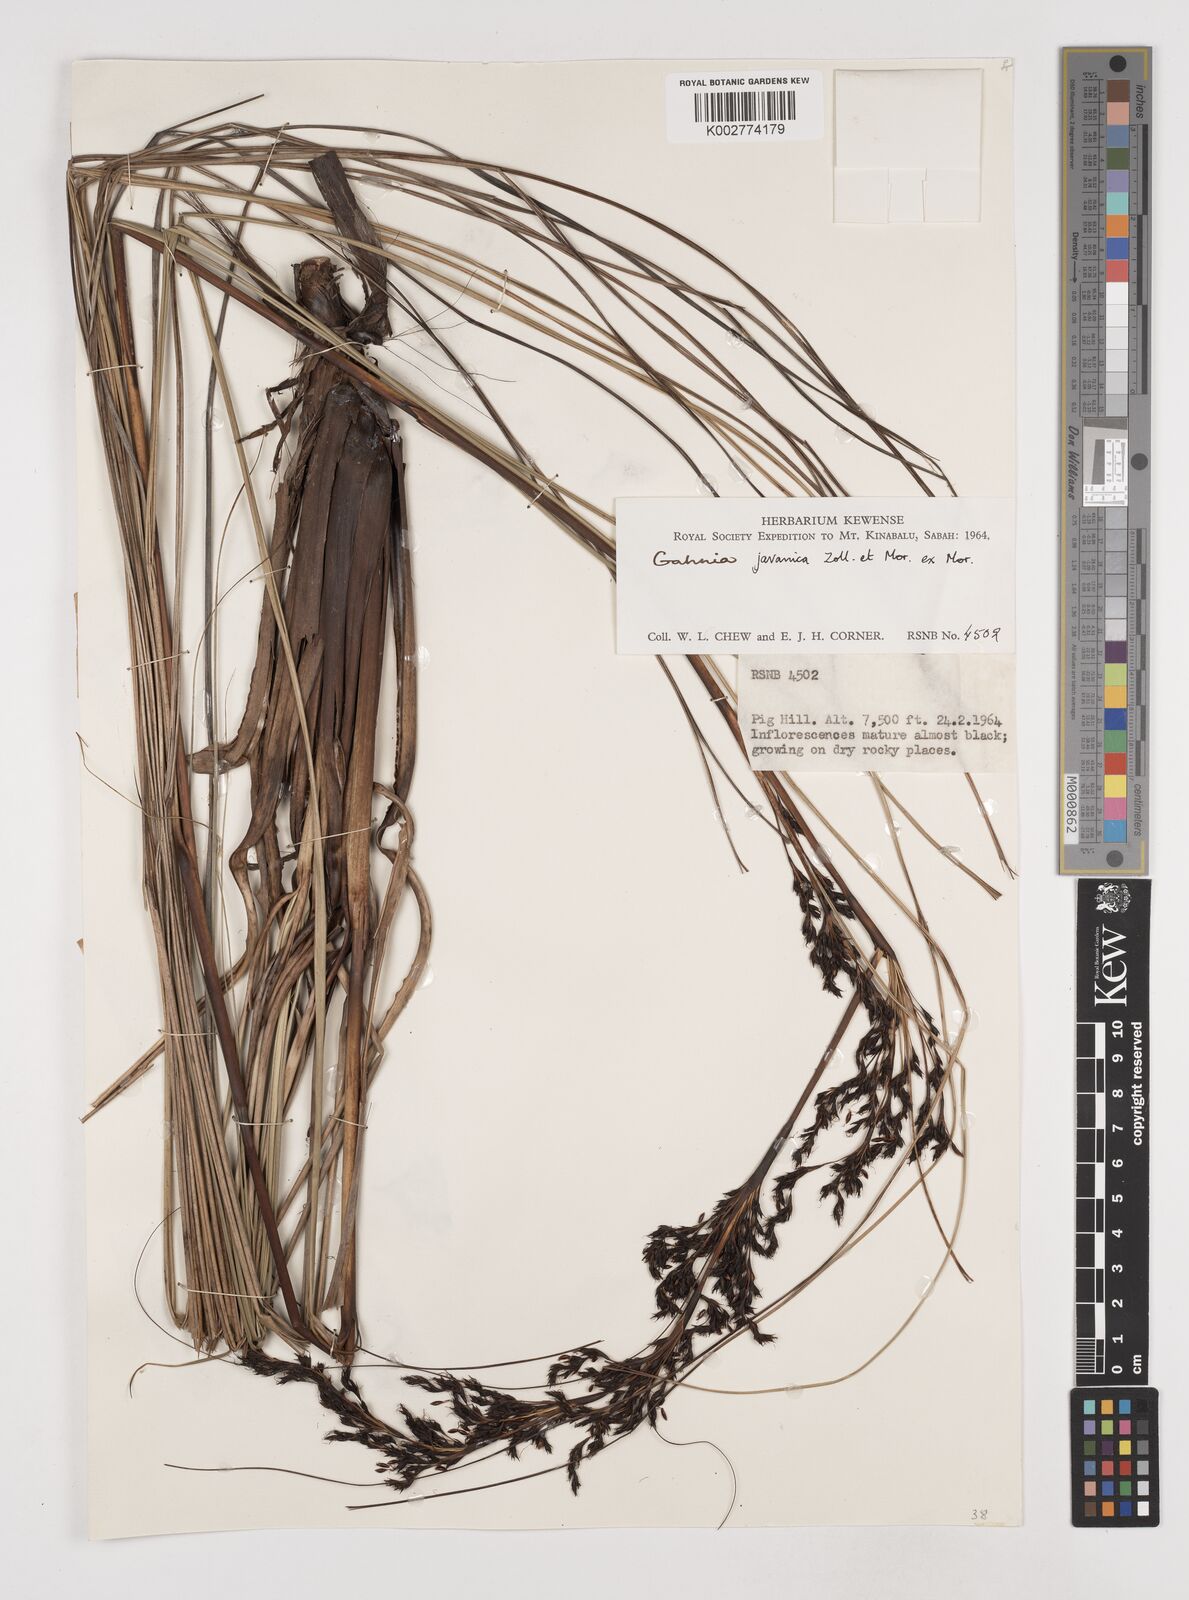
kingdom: Plantae
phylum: Tracheophyta
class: Liliopsida
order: Poales
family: Cyperaceae
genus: Gahnia
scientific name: Gahnia javanica
